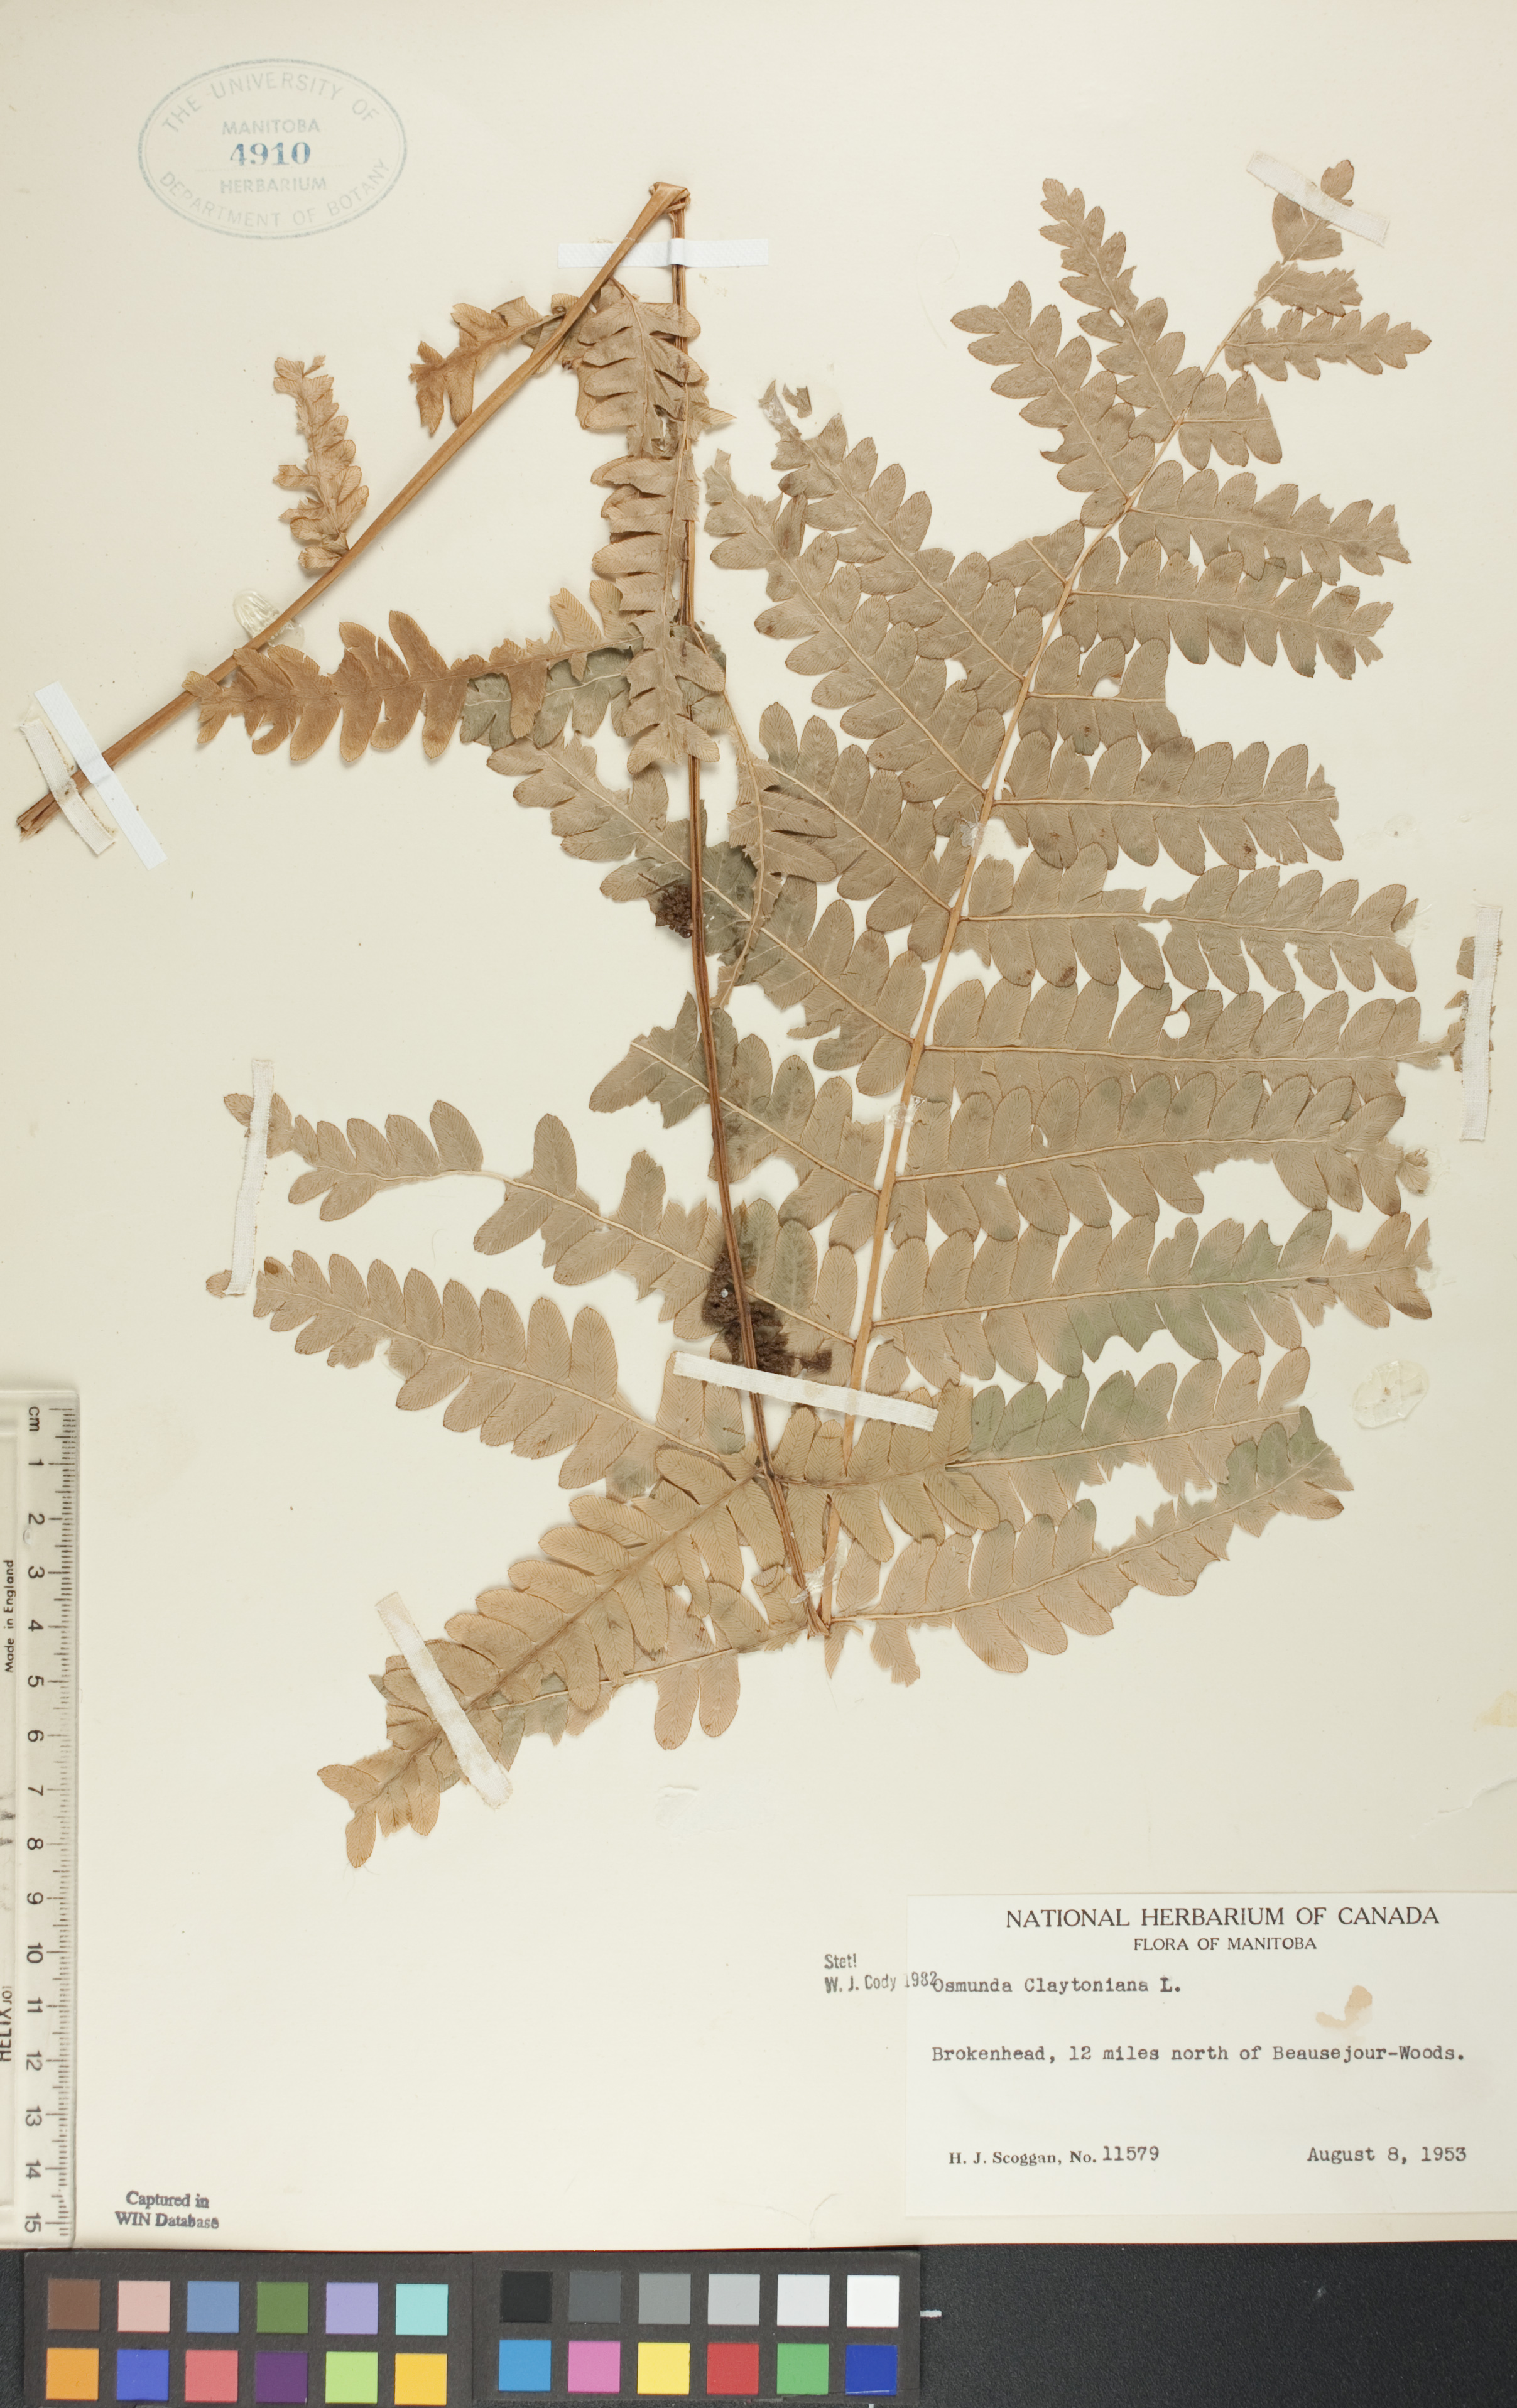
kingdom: Plantae
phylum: Tracheophyta
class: Polypodiopsida
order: Osmundales
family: Osmundaceae
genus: Claytosmunda
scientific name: Claytosmunda claytoniana
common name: Clayton's fern
